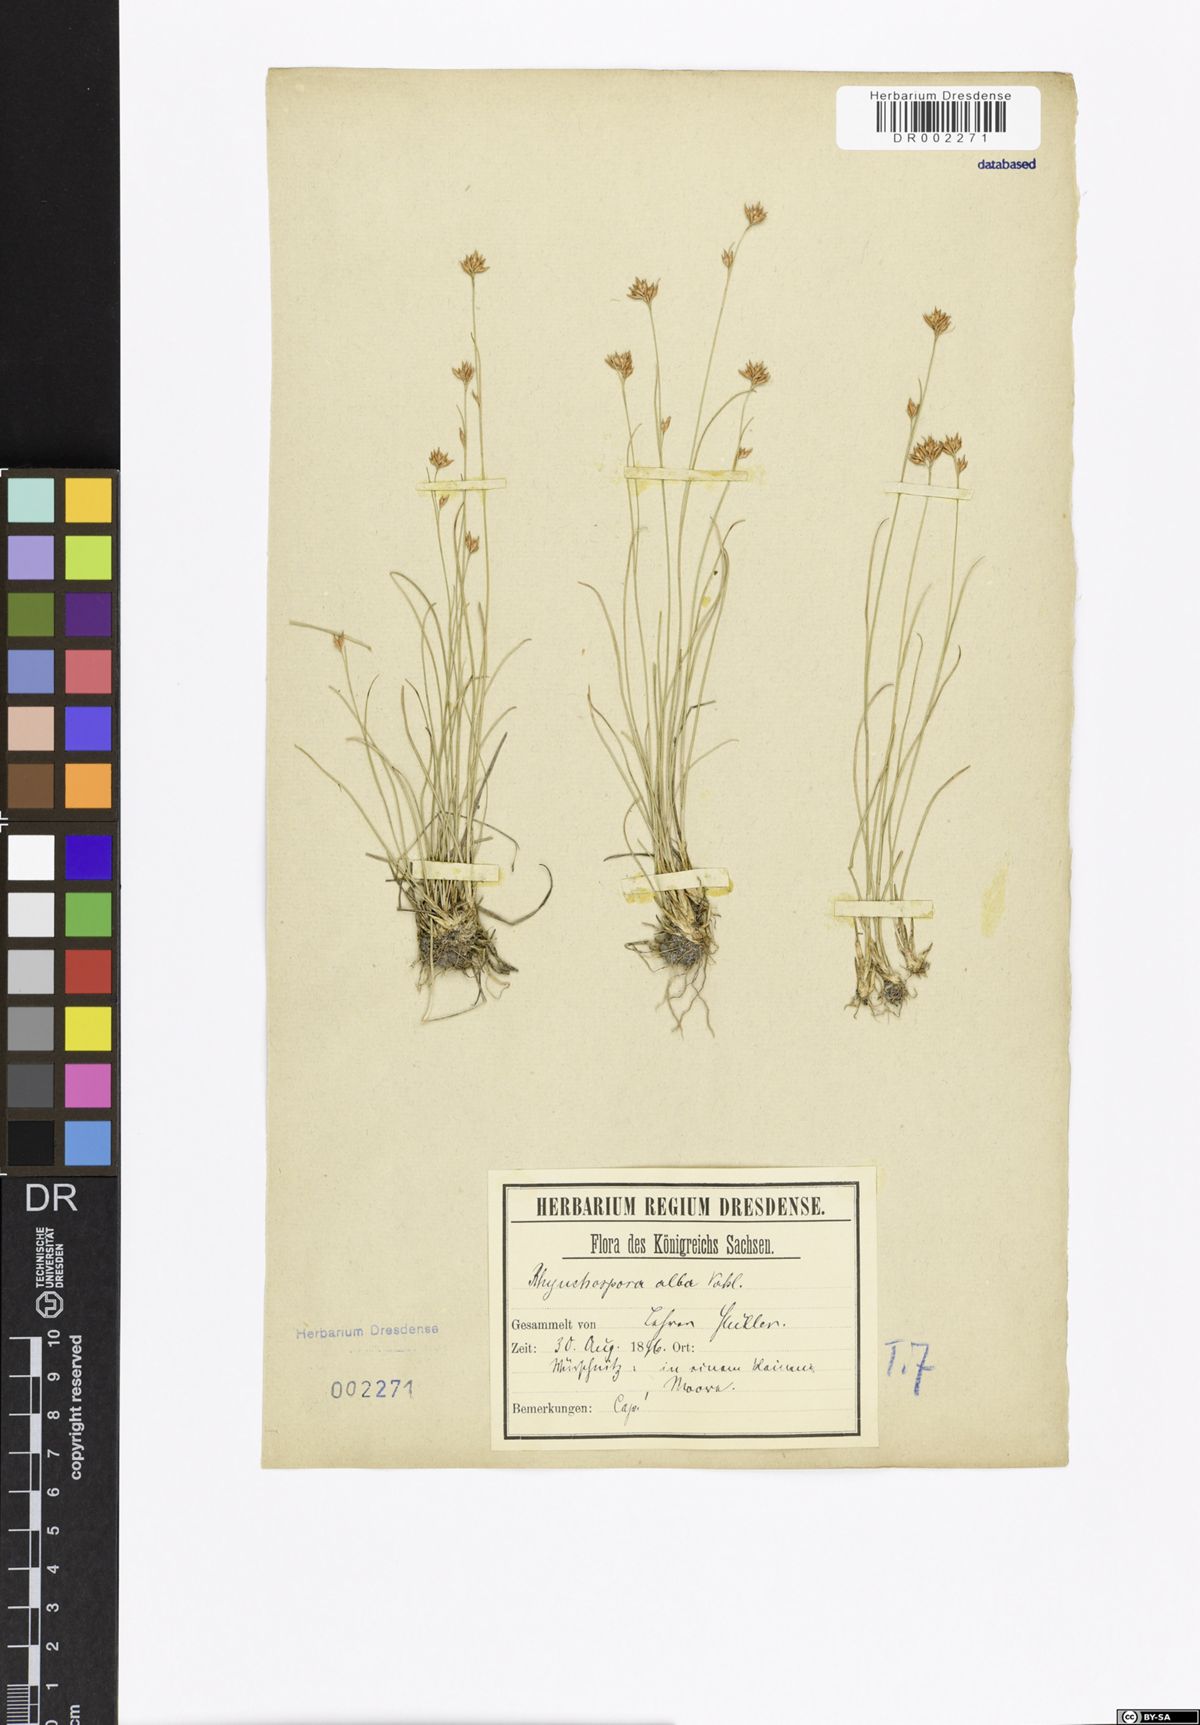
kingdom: Plantae
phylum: Tracheophyta
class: Liliopsida
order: Poales
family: Cyperaceae
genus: Rhynchospora
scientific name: Rhynchospora alba
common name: White beak-sedge
